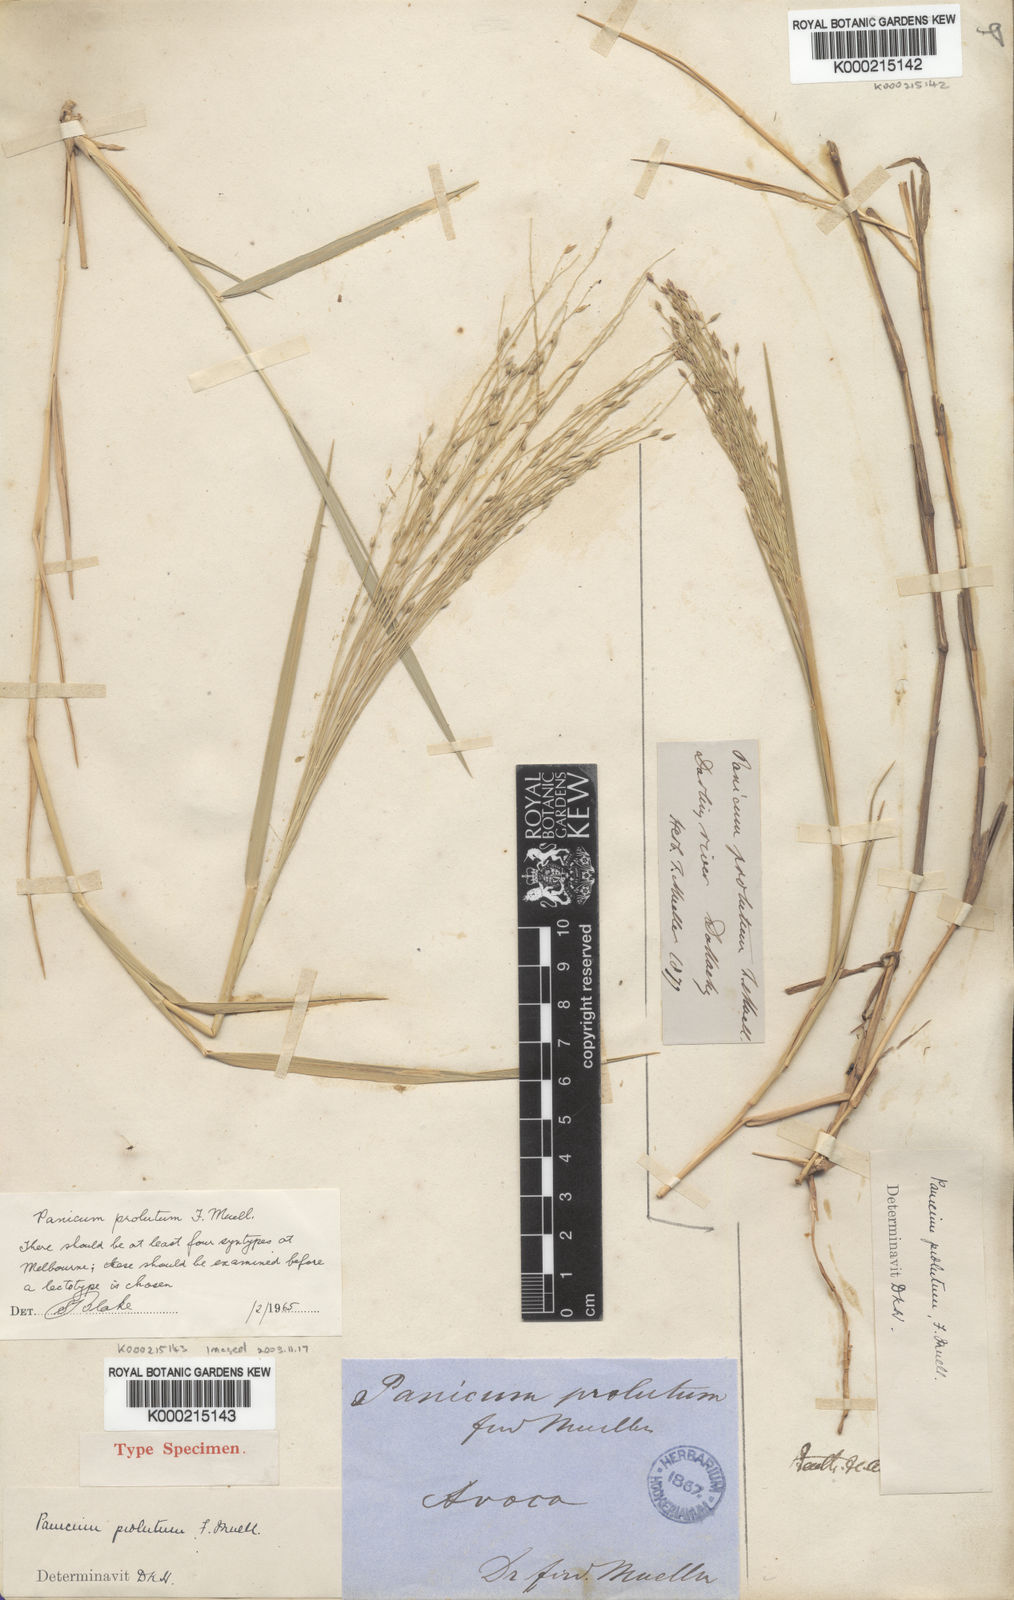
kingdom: Plantae
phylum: Tracheophyta
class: Liliopsida
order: Poales
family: Poaceae
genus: Walwhalleya
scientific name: Walwhalleya proluta
